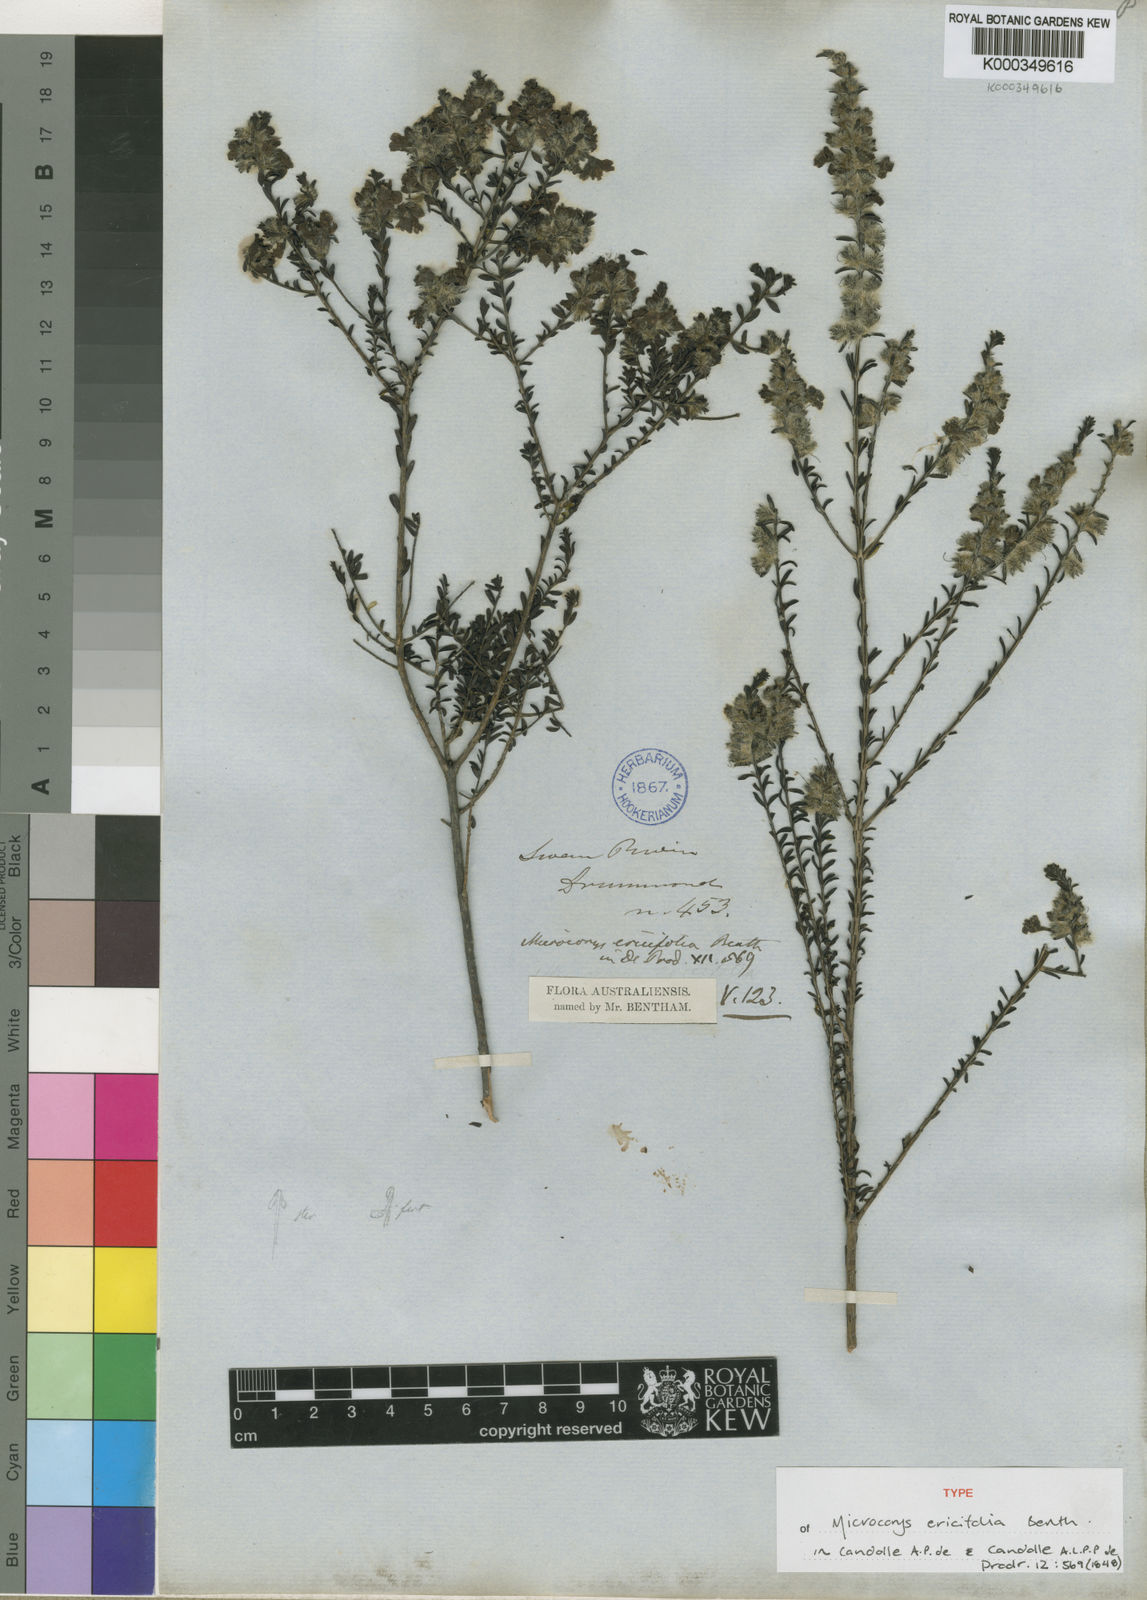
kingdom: Plantae
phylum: Tracheophyta
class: Magnoliopsida
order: Lamiales
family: Lamiaceae
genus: Microcorys
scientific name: Microcorys ericifolia
